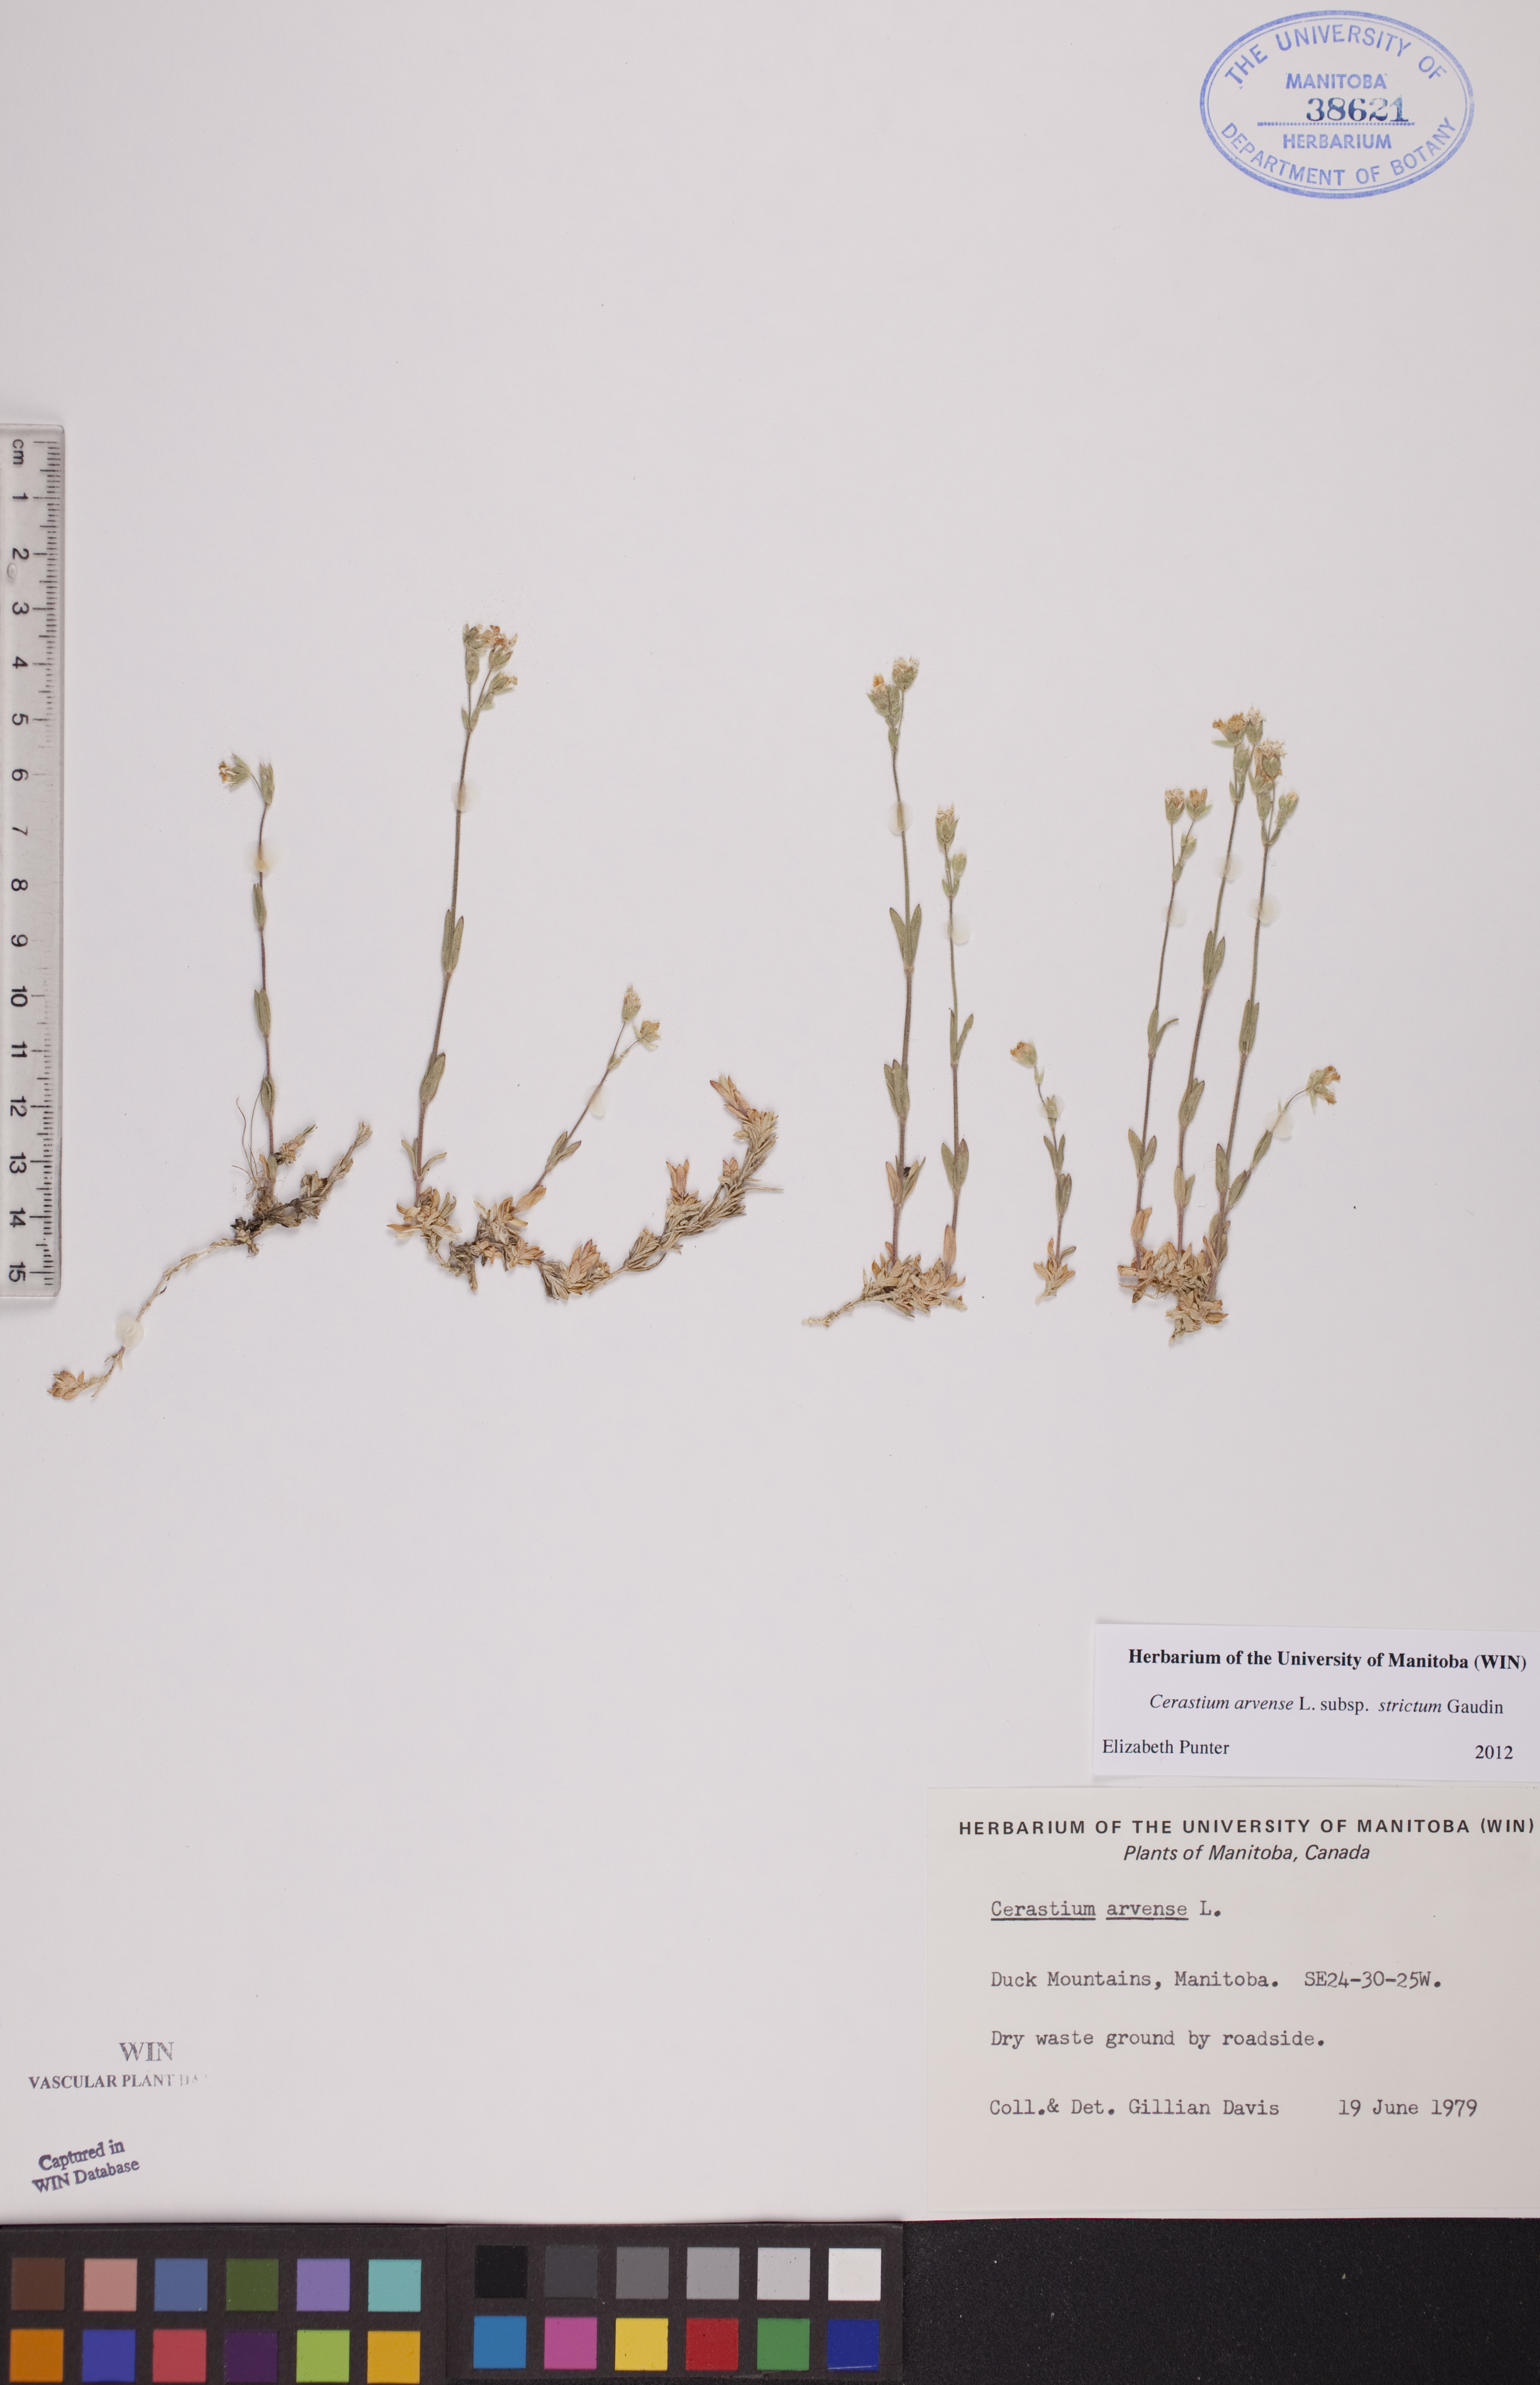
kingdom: Plantae
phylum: Tracheophyta
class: Magnoliopsida
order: Caryophyllales
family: Caryophyllaceae
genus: Cerastium
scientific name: Cerastium elongatum
